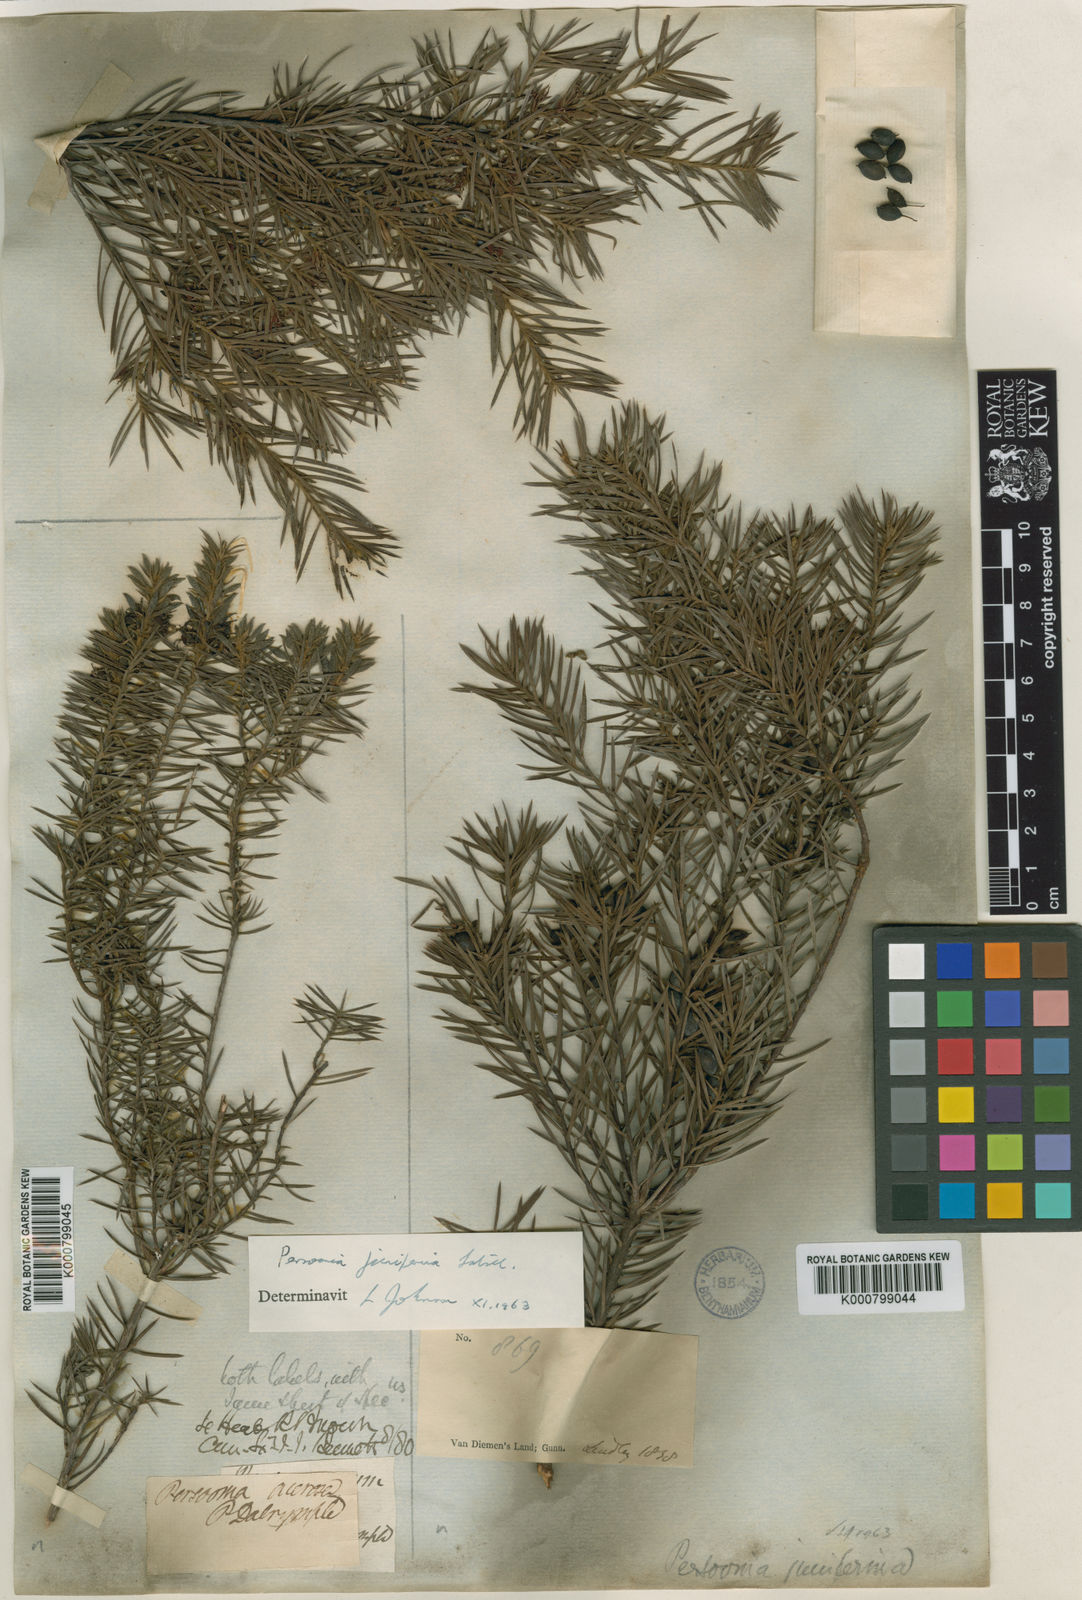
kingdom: Plantae
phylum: Tracheophyta
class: Magnoliopsida
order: Proteales
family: Proteaceae
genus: Persoonia
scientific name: Persoonia juniperina
